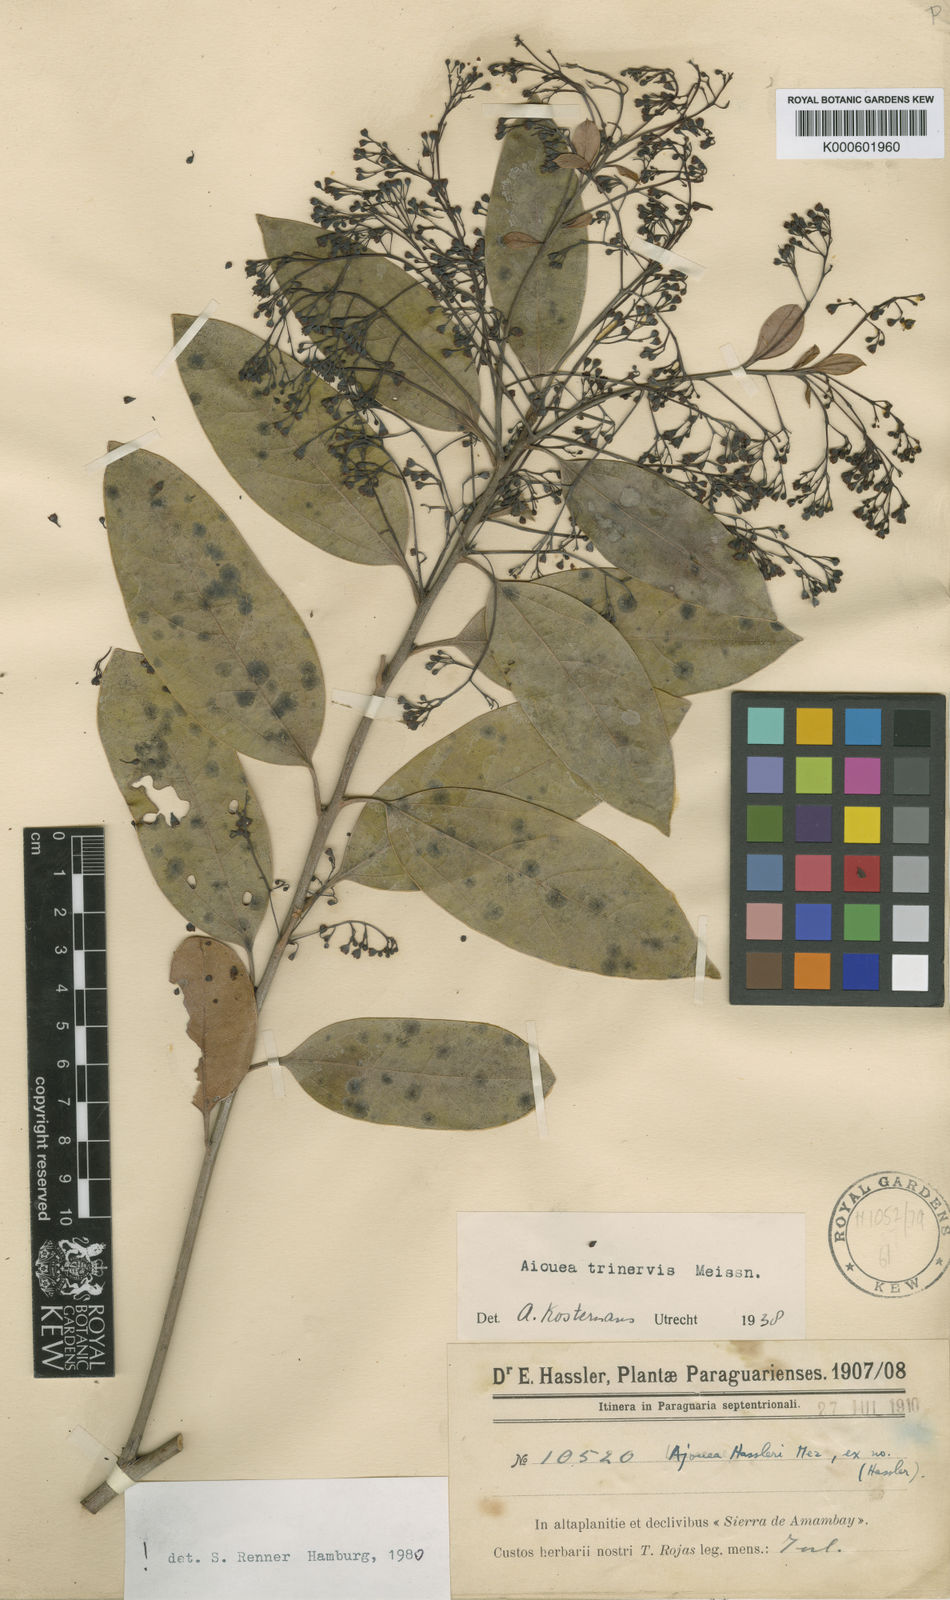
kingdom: Plantae
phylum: Tracheophyta
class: Magnoliopsida
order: Laurales
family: Lauraceae
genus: Aiouea
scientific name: Aiouea trinervis
